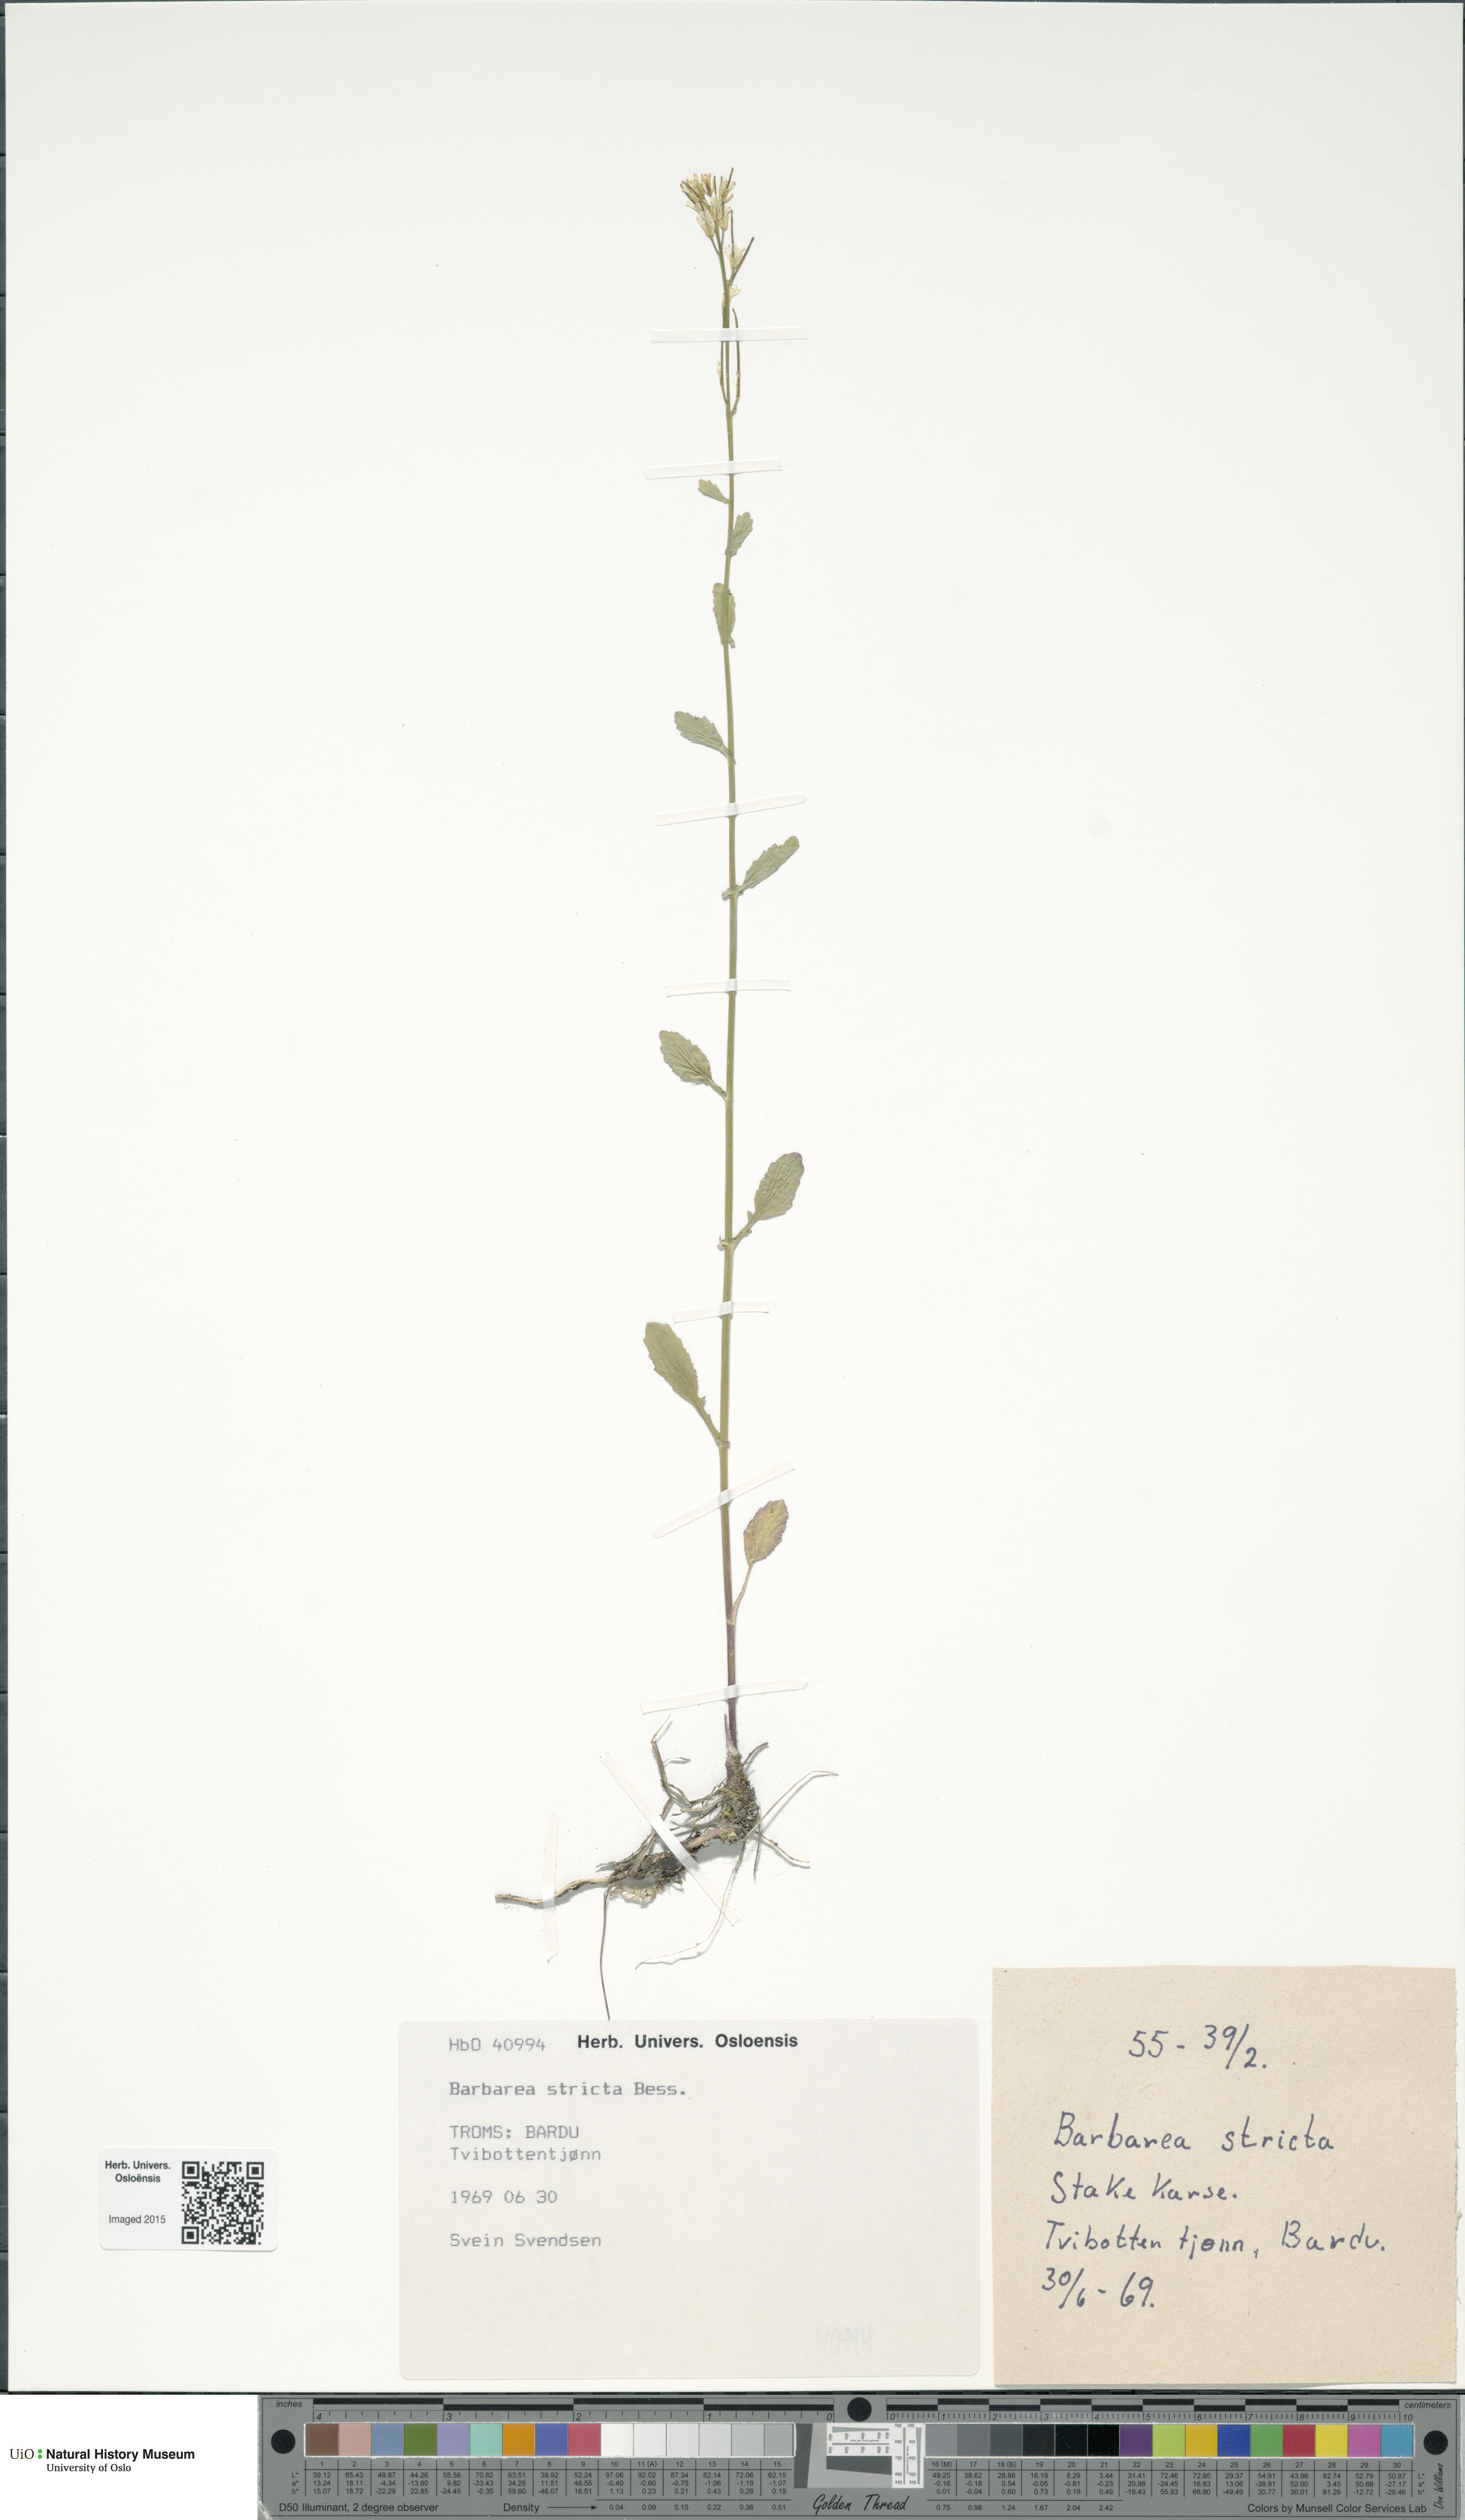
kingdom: Plantae
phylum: Tracheophyta
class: Magnoliopsida
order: Brassicales
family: Brassicaceae
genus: Barbarea
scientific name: Barbarea stricta
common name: Small-flowered winter-cress
